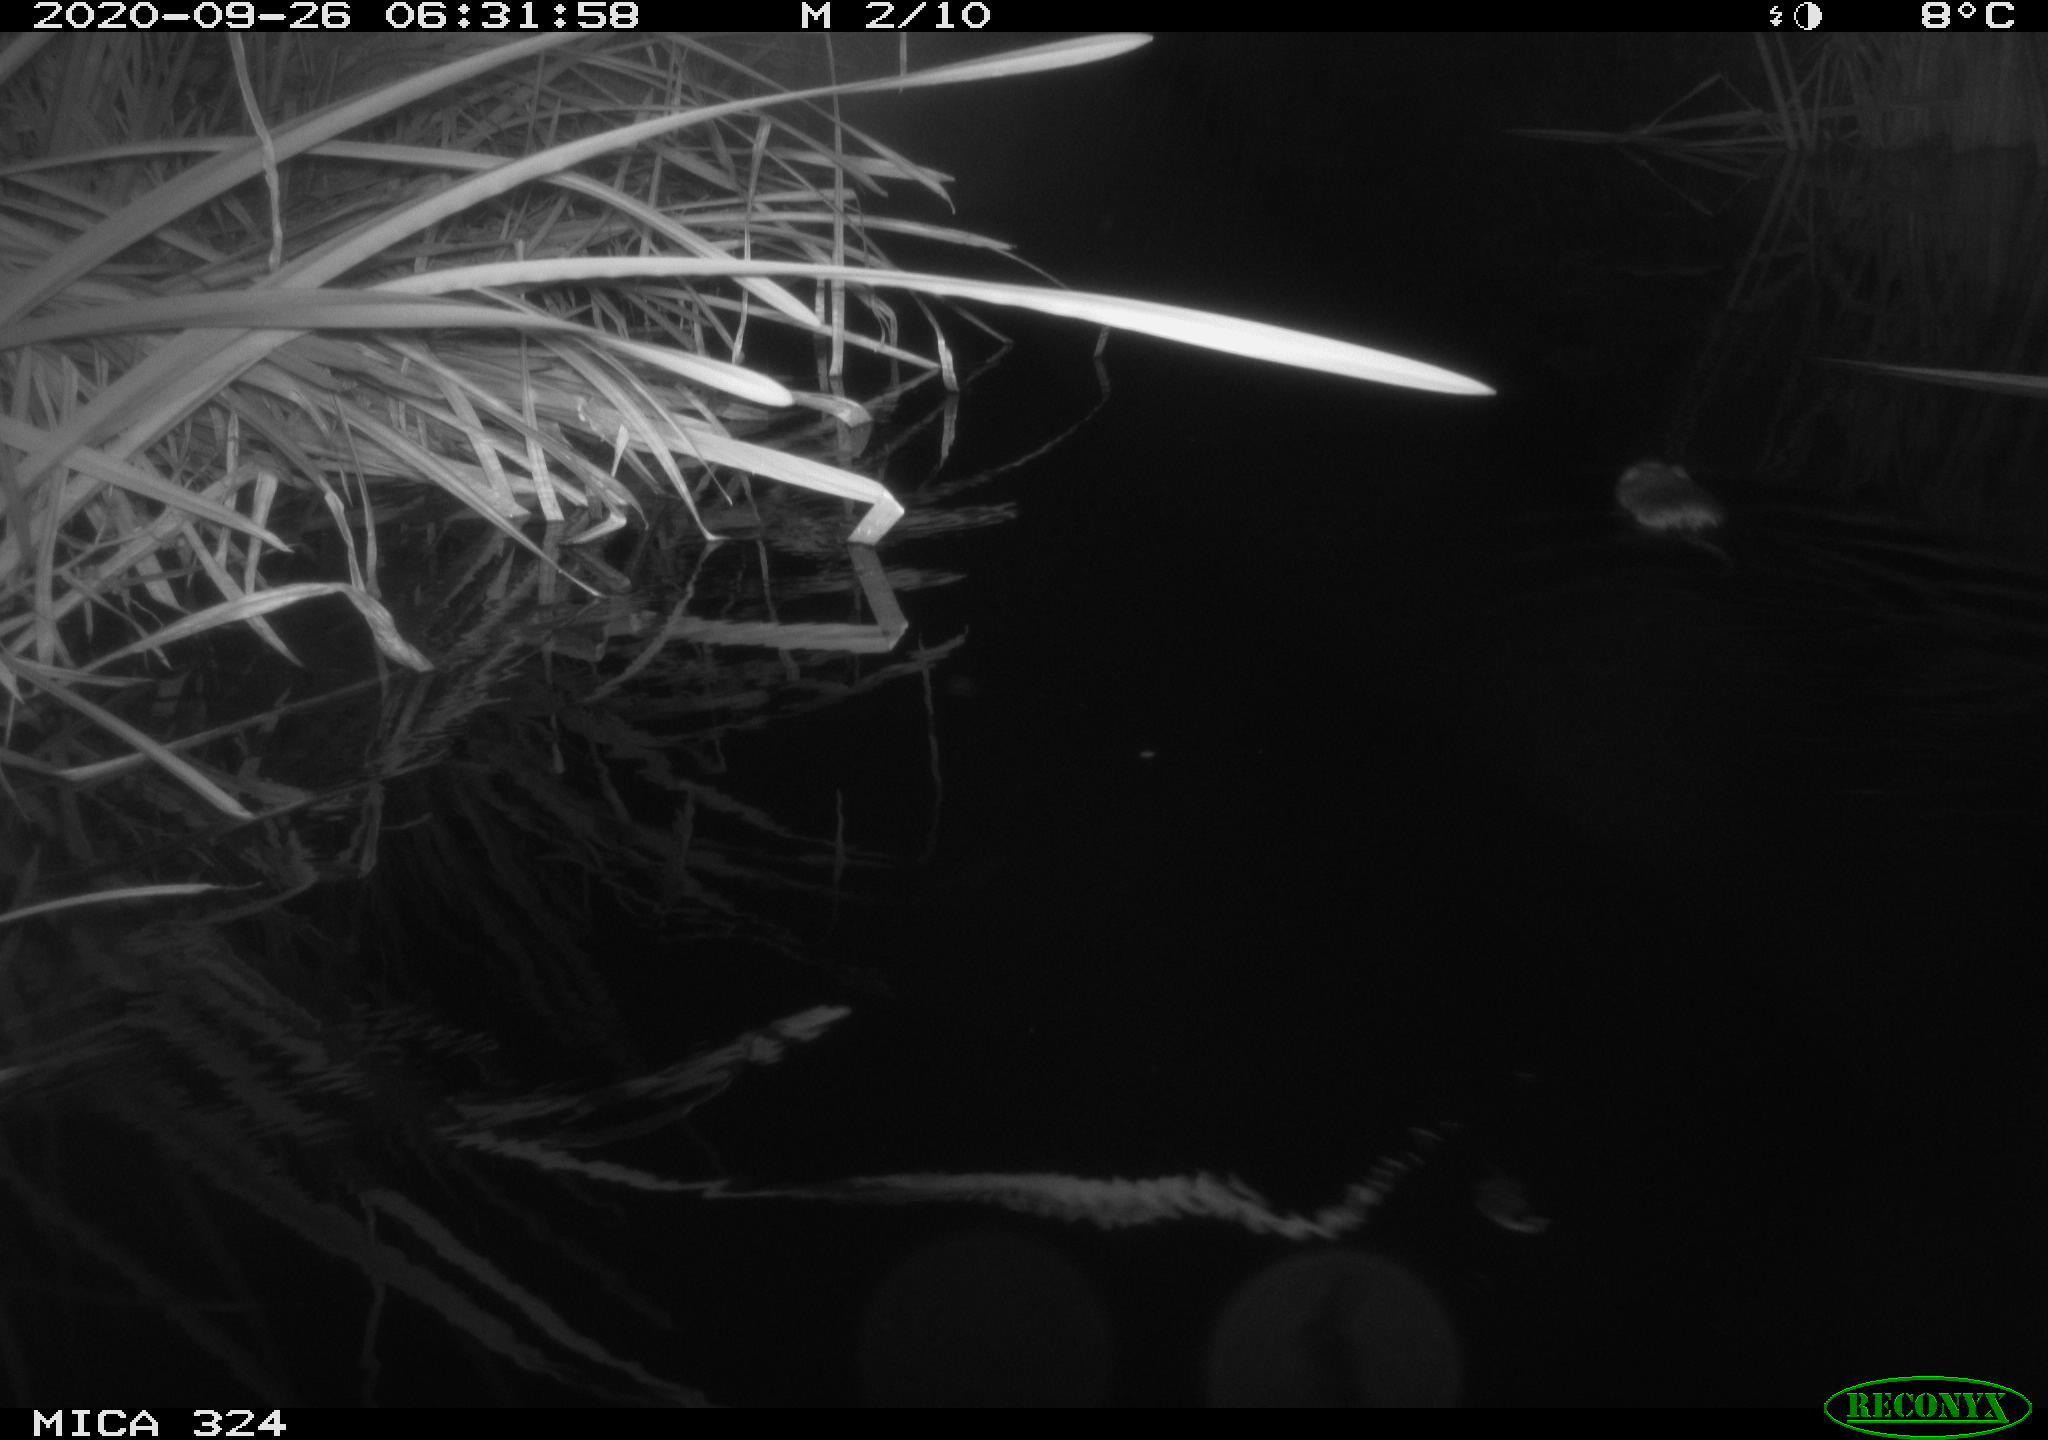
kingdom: Animalia
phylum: Chordata
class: Mammalia
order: Rodentia
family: Cricetidae
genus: Ondatra
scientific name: Ondatra zibethicus
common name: Muskrat
